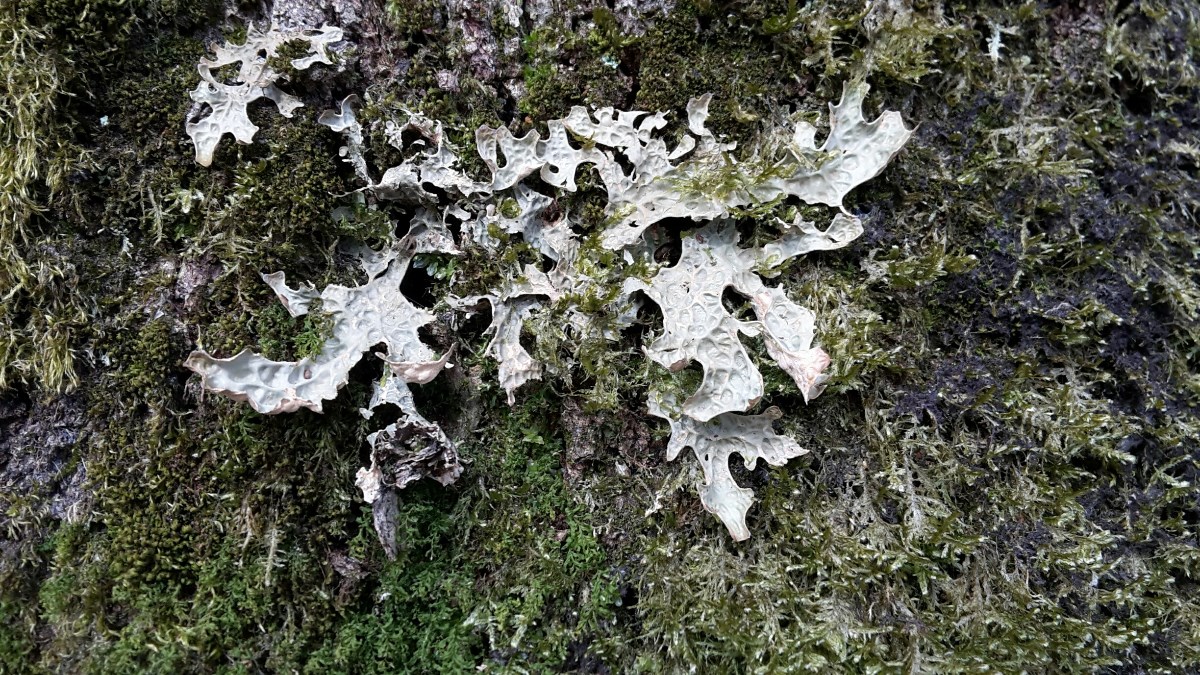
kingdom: Fungi
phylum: Ascomycota
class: Lecanoromycetes
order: Peltigerales
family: Lobariaceae
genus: Lobaria
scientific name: Lobaria pulmonaria
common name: almindelig lungelav
